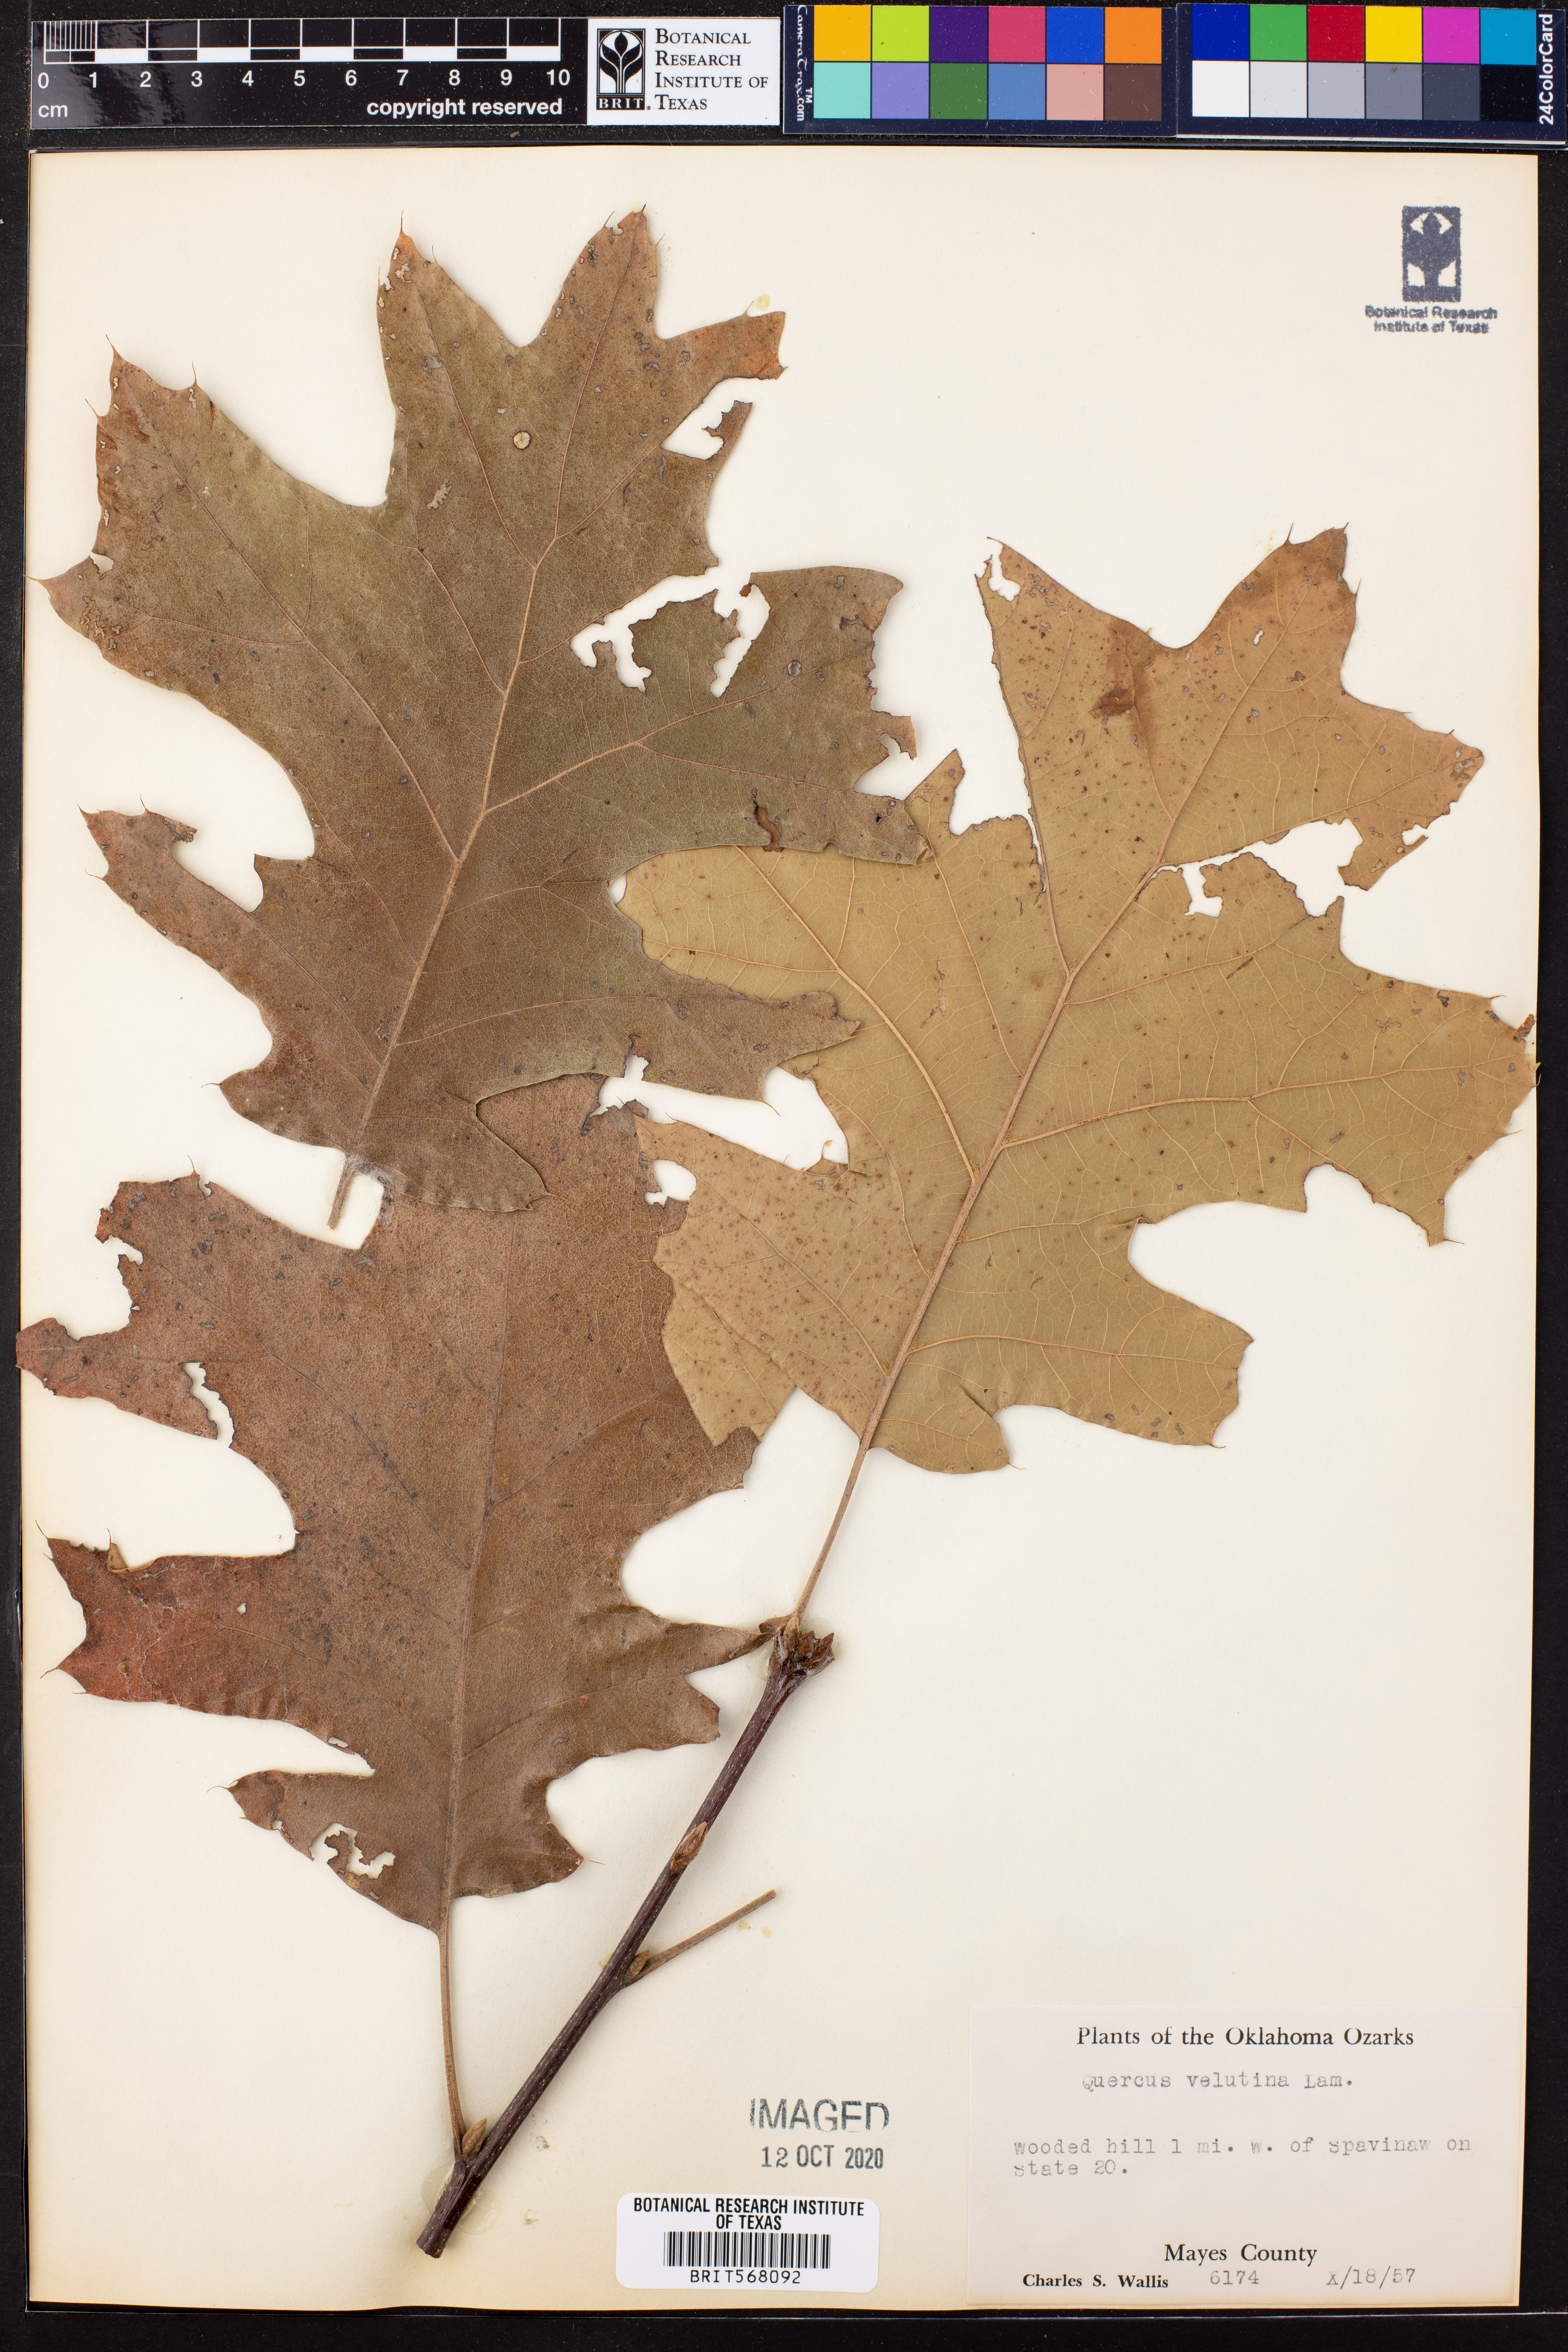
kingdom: Plantae
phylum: Tracheophyta
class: Magnoliopsida
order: Fagales
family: Fagaceae
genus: Quercus
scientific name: Quercus velutina
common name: Black oak
